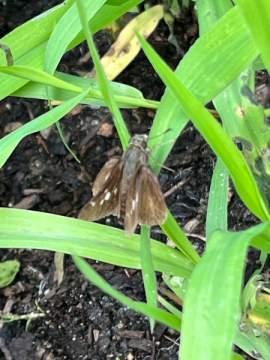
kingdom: Animalia
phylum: Arthropoda
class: Insecta
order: Lepidoptera
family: Hesperiidae
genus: Vernia
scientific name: Vernia verna
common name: Little Glassywing
